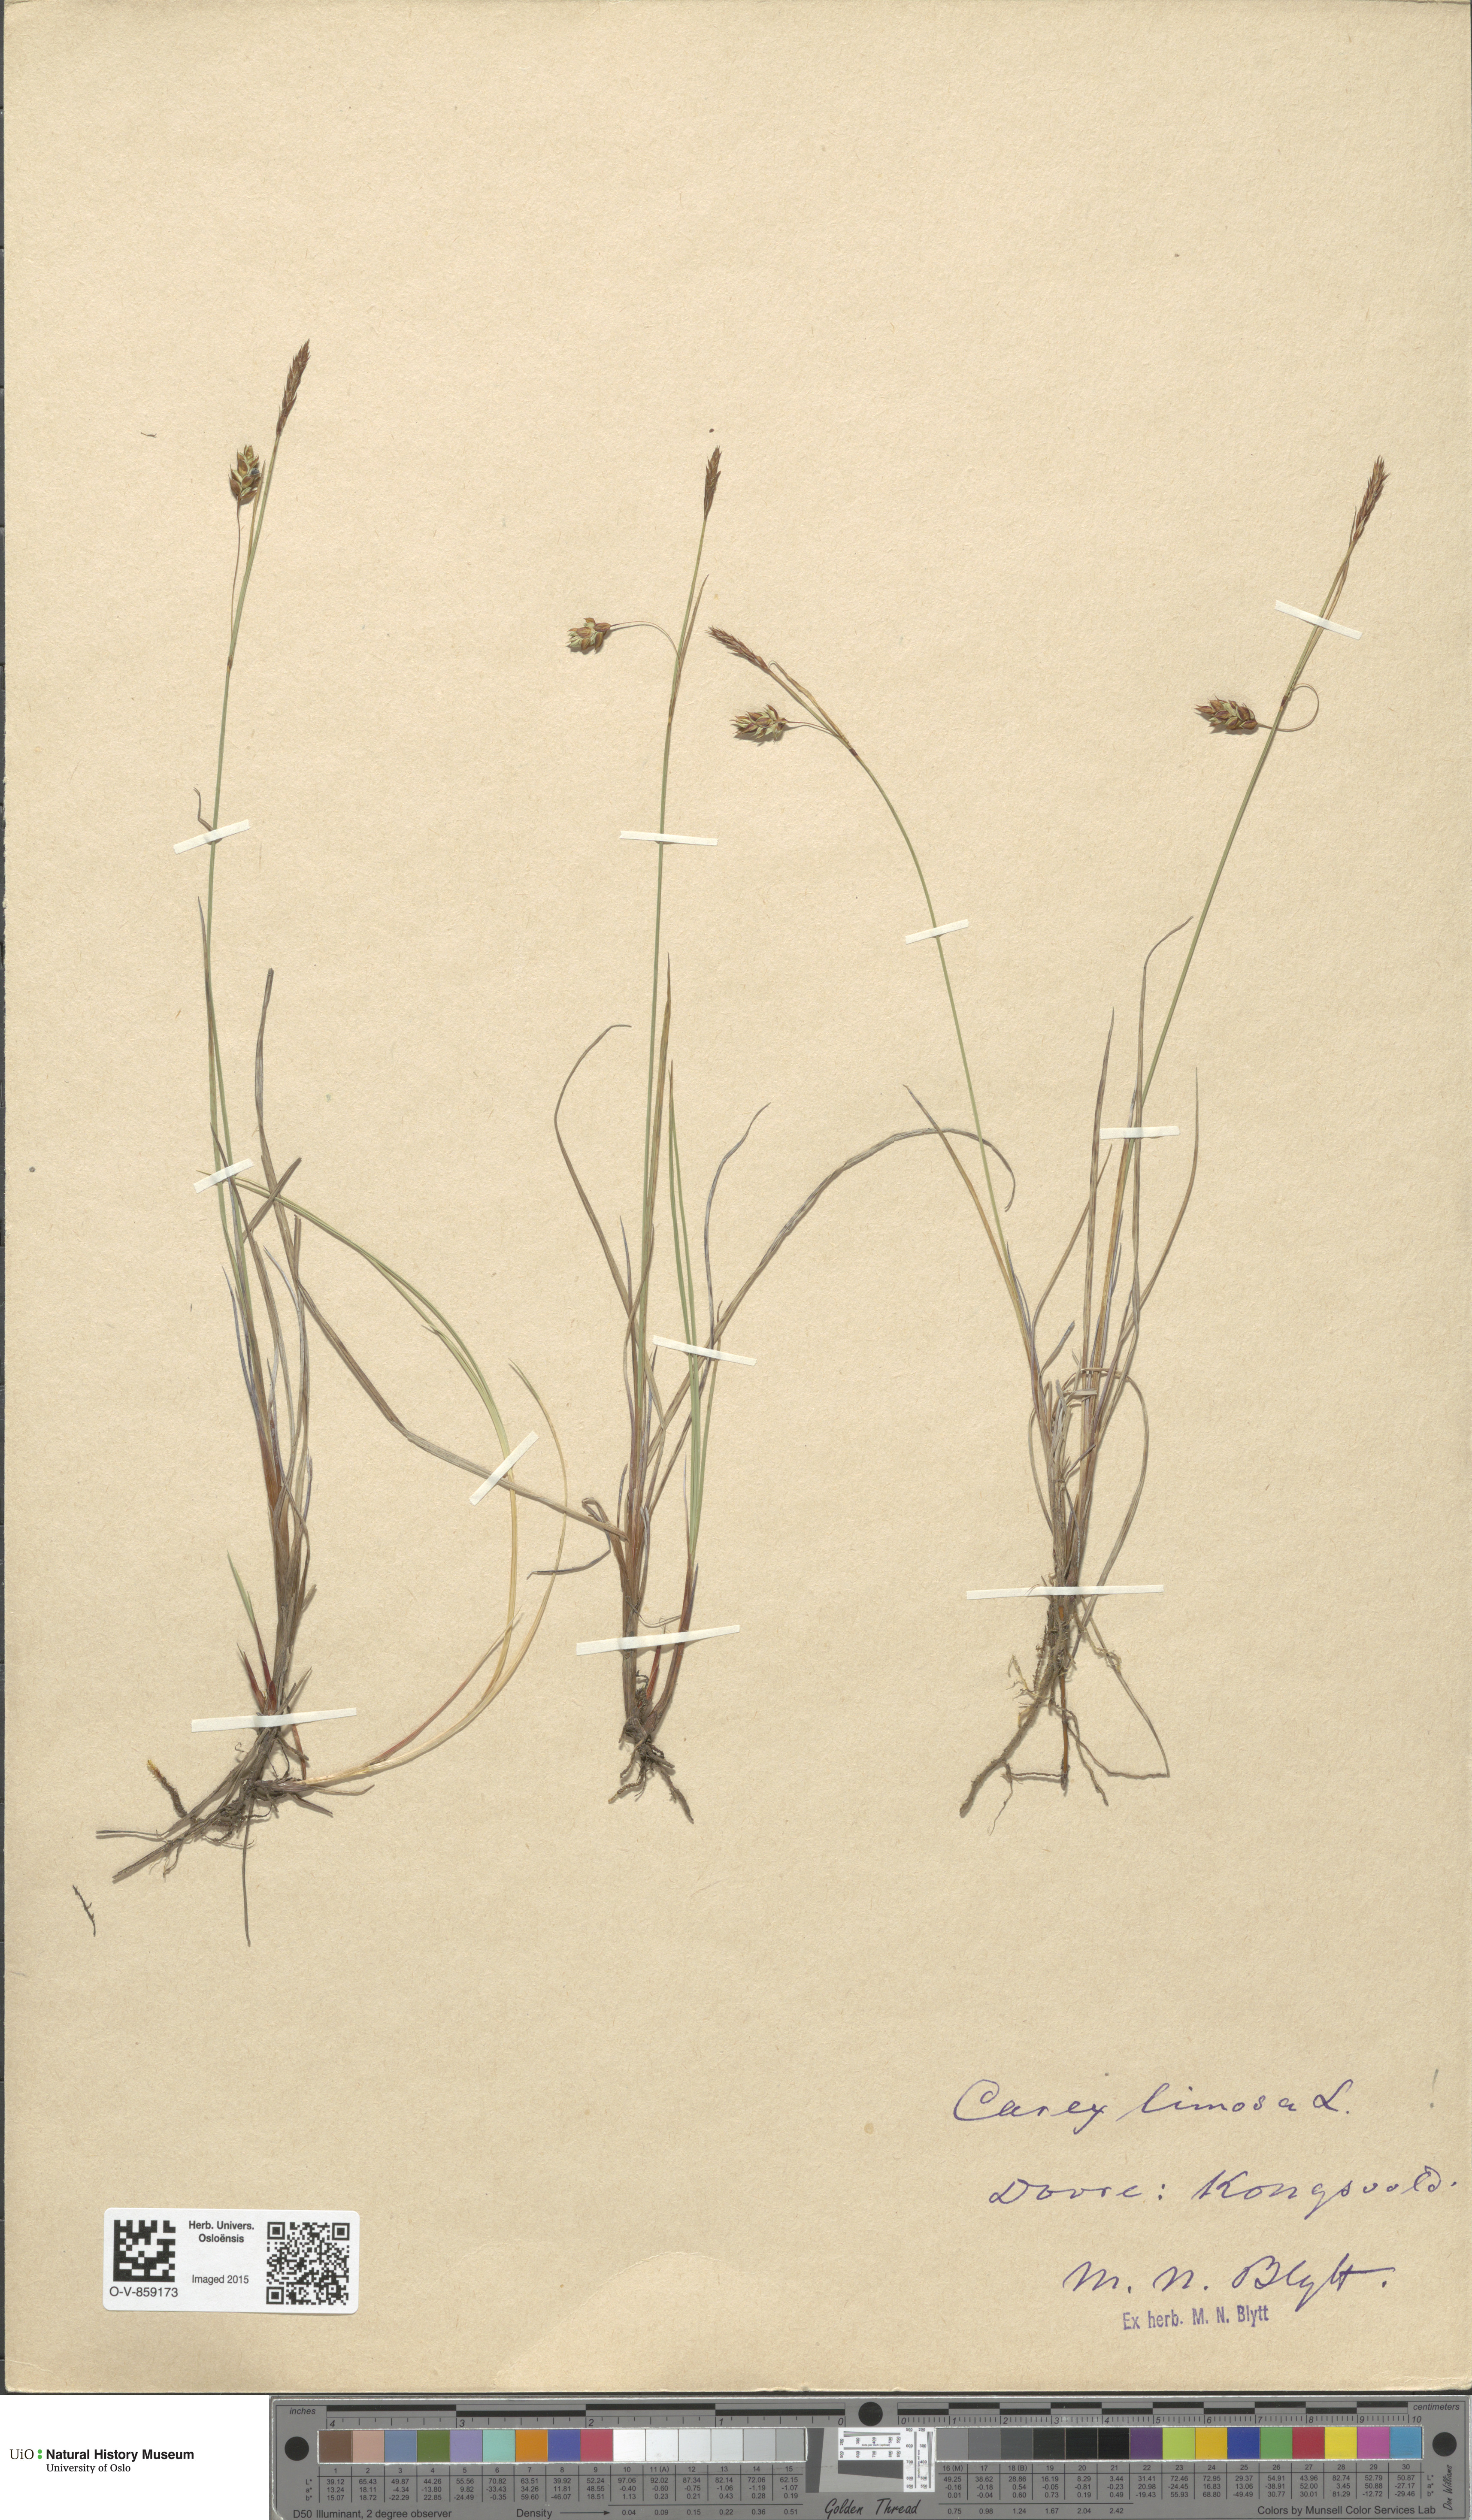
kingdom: Plantae
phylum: Tracheophyta
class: Liliopsida
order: Poales
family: Cyperaceae
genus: Carex
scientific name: Carex limosa
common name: Bog sedge
